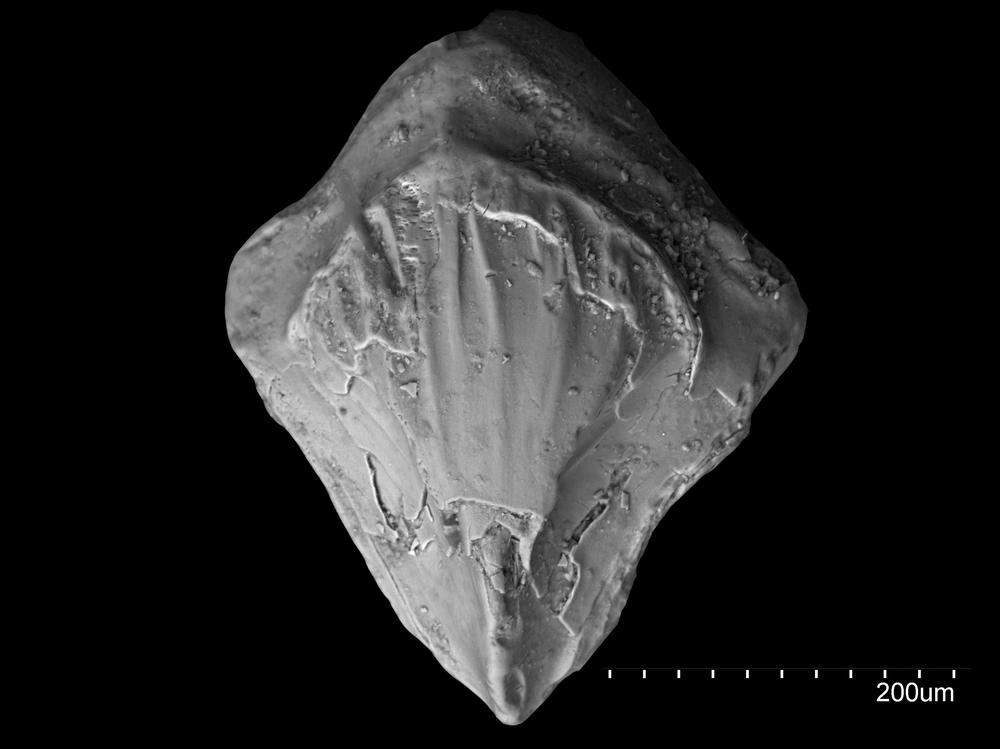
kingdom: Animalia
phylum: Chordata
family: Cheiracanthidae
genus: Ginkgolepis
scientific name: Ginkgolepis
